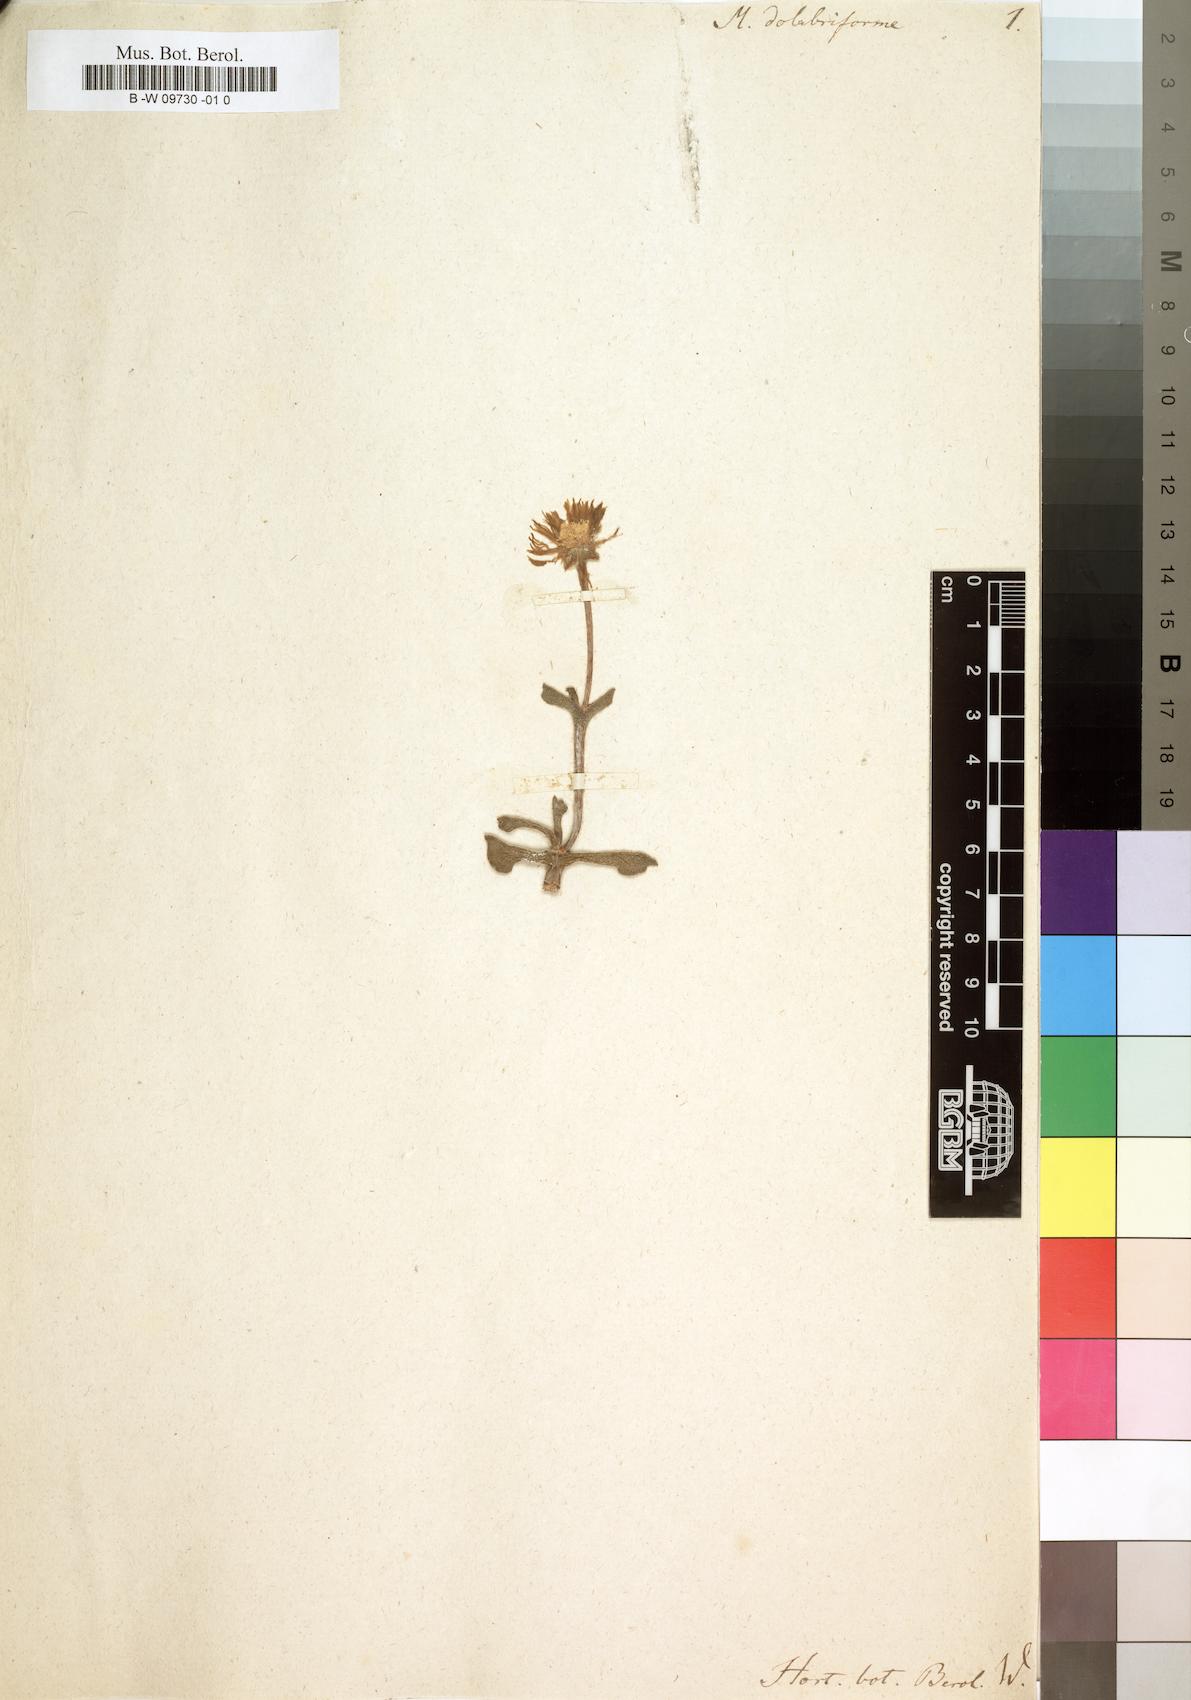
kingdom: Plantae
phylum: Tracheophyta
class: Magnoliopsida
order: Caryophyllales
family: Aizoaceae
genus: Dracophilus
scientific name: Dracophilus Rhombophyllum dolabriforme
